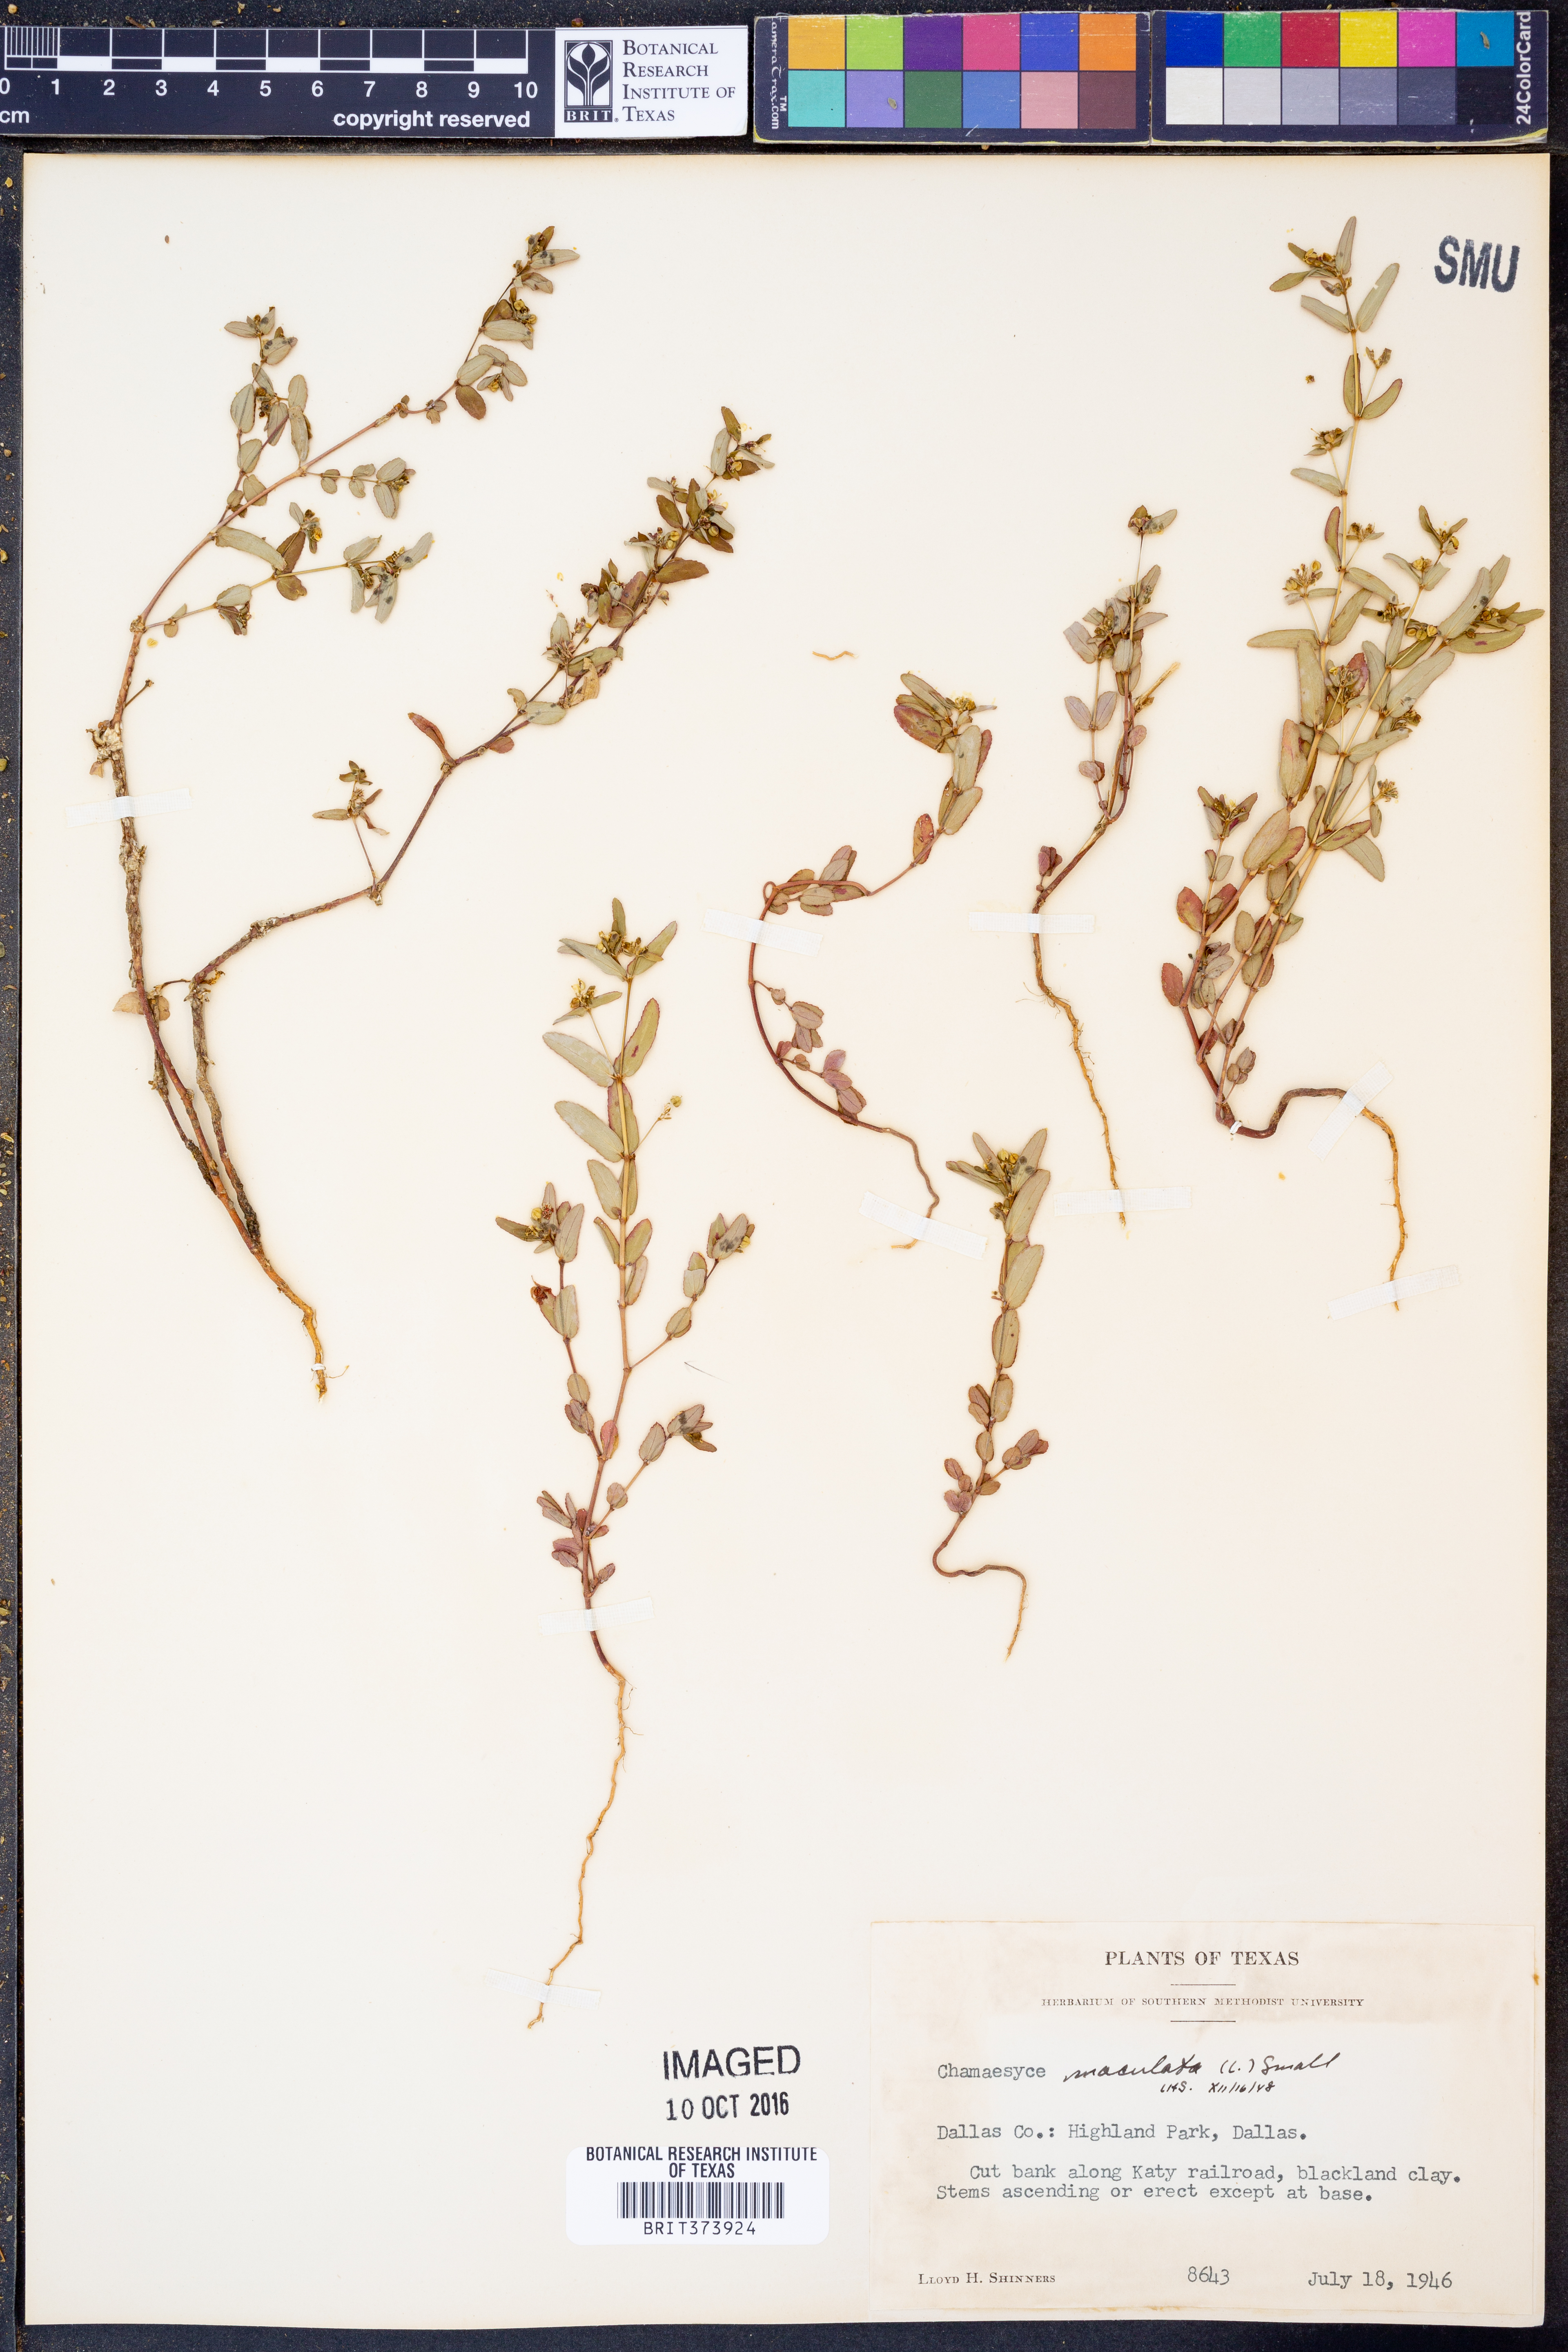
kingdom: Plantae
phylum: Tracheophyta
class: Magnoliopsida
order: Malpighiales
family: Euphorbiaceae
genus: Euphorbia
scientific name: Euphorbia maculata
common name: Spotted spurge
